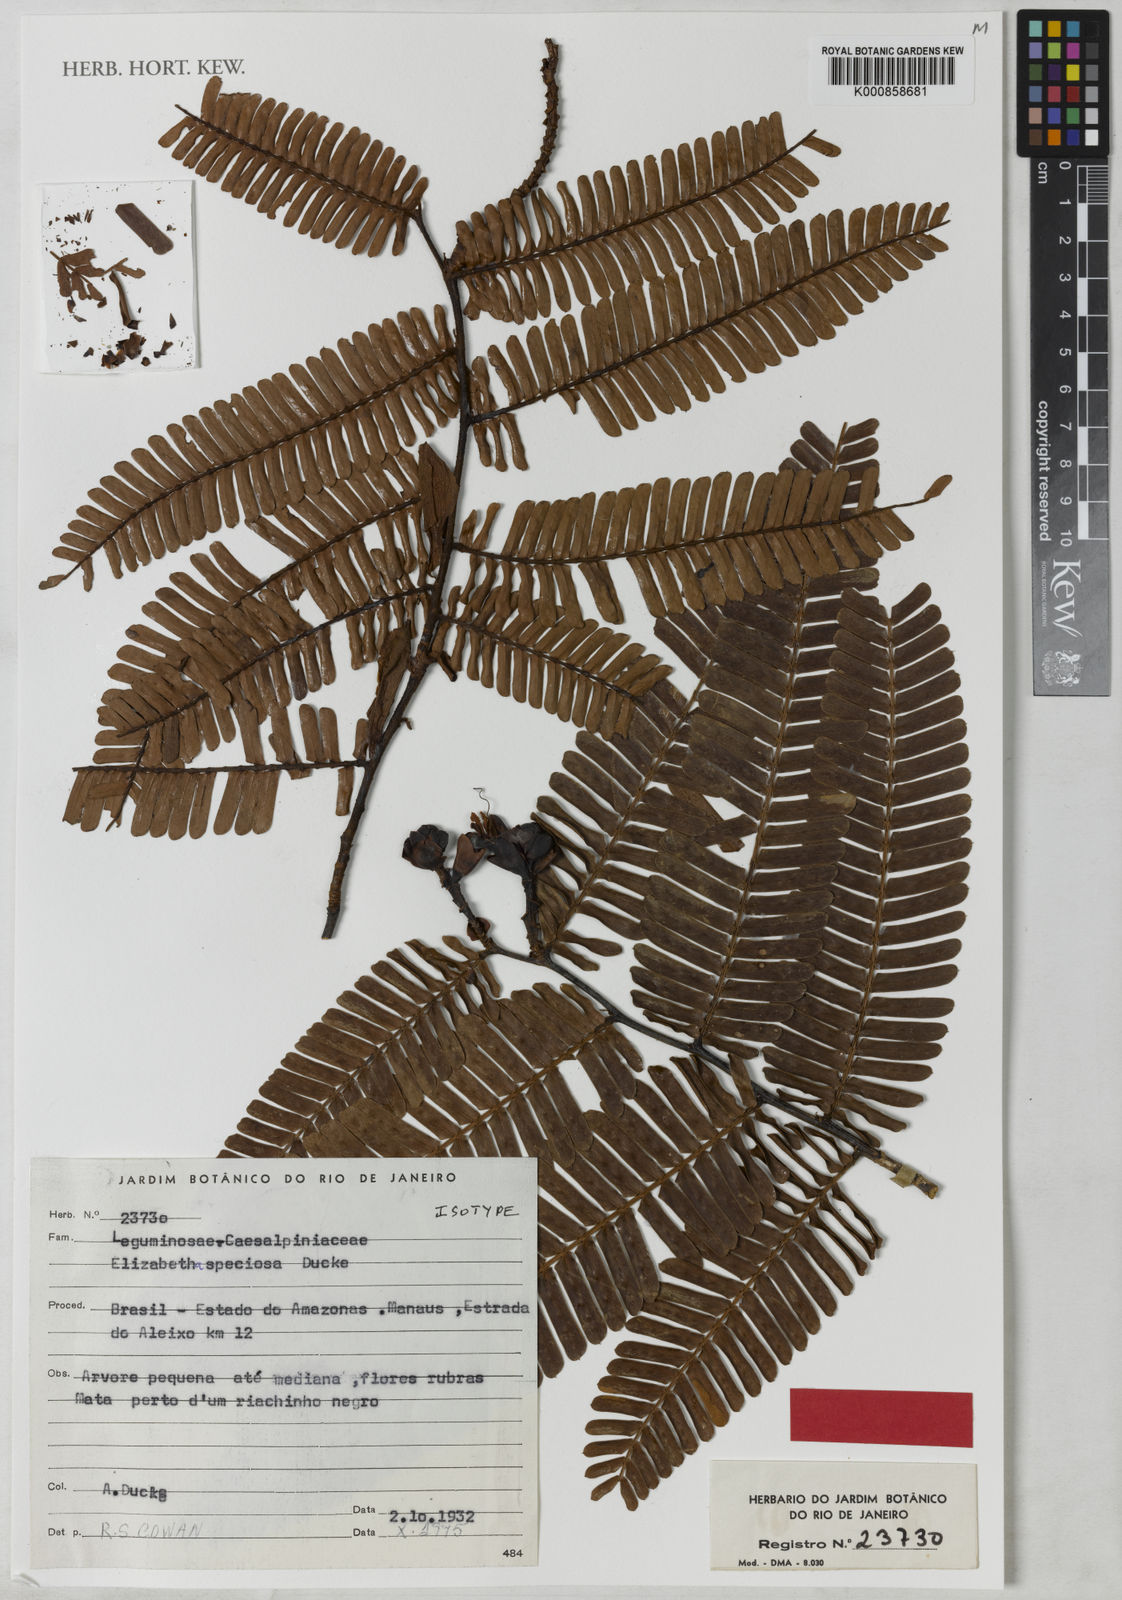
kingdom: Plantae
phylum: Tracheophyta
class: Magnoliopsida
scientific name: Magnoliopsida
